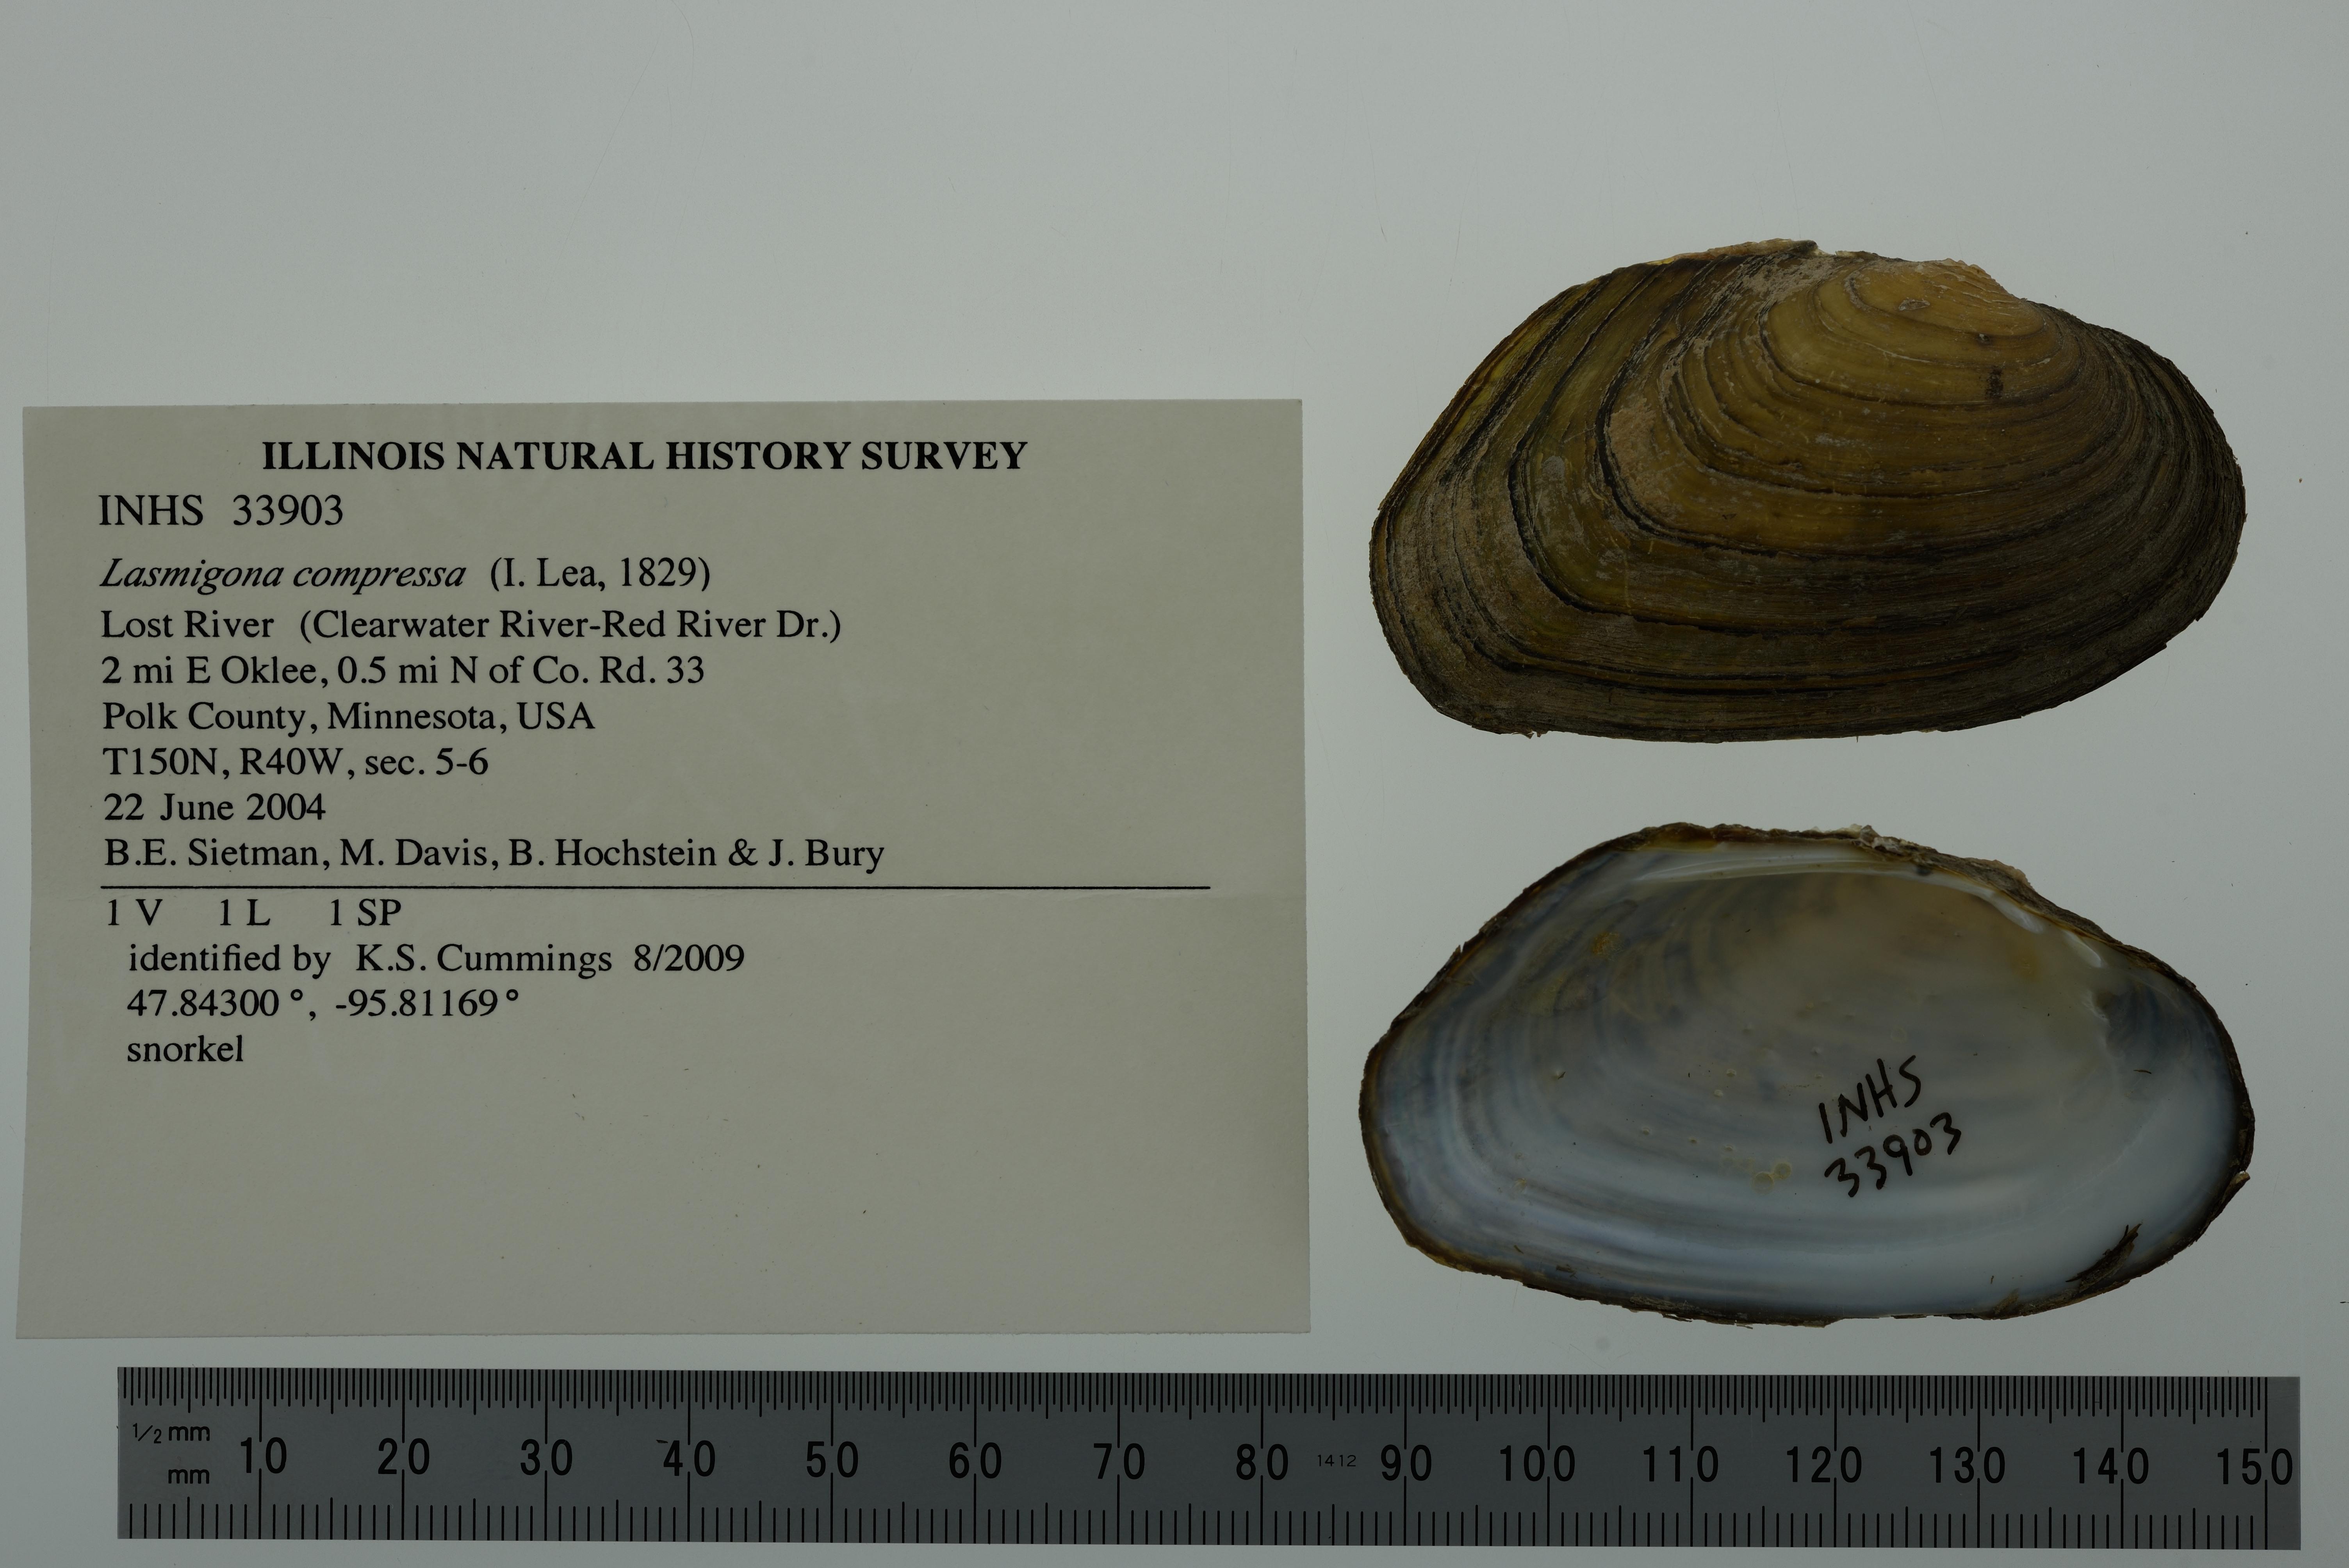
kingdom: Animalia
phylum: Mollusca
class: Bivalvia
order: Unionida
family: Unionidae
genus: Lasmigona
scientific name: Lasmigona compressa
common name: Creek heelsplitter
